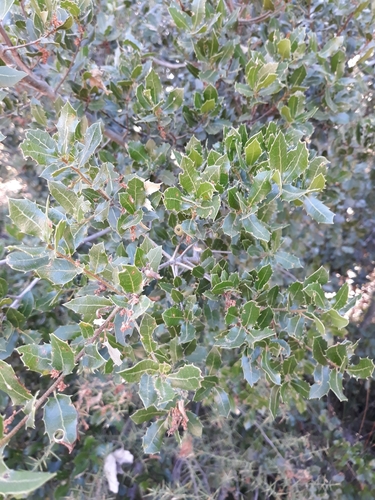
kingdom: Plantae
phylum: Tracheophyta
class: Magnoliopsida
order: Fagales
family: Fagaceae
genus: Quercus
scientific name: Quercus coccifera
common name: Kermes oak
